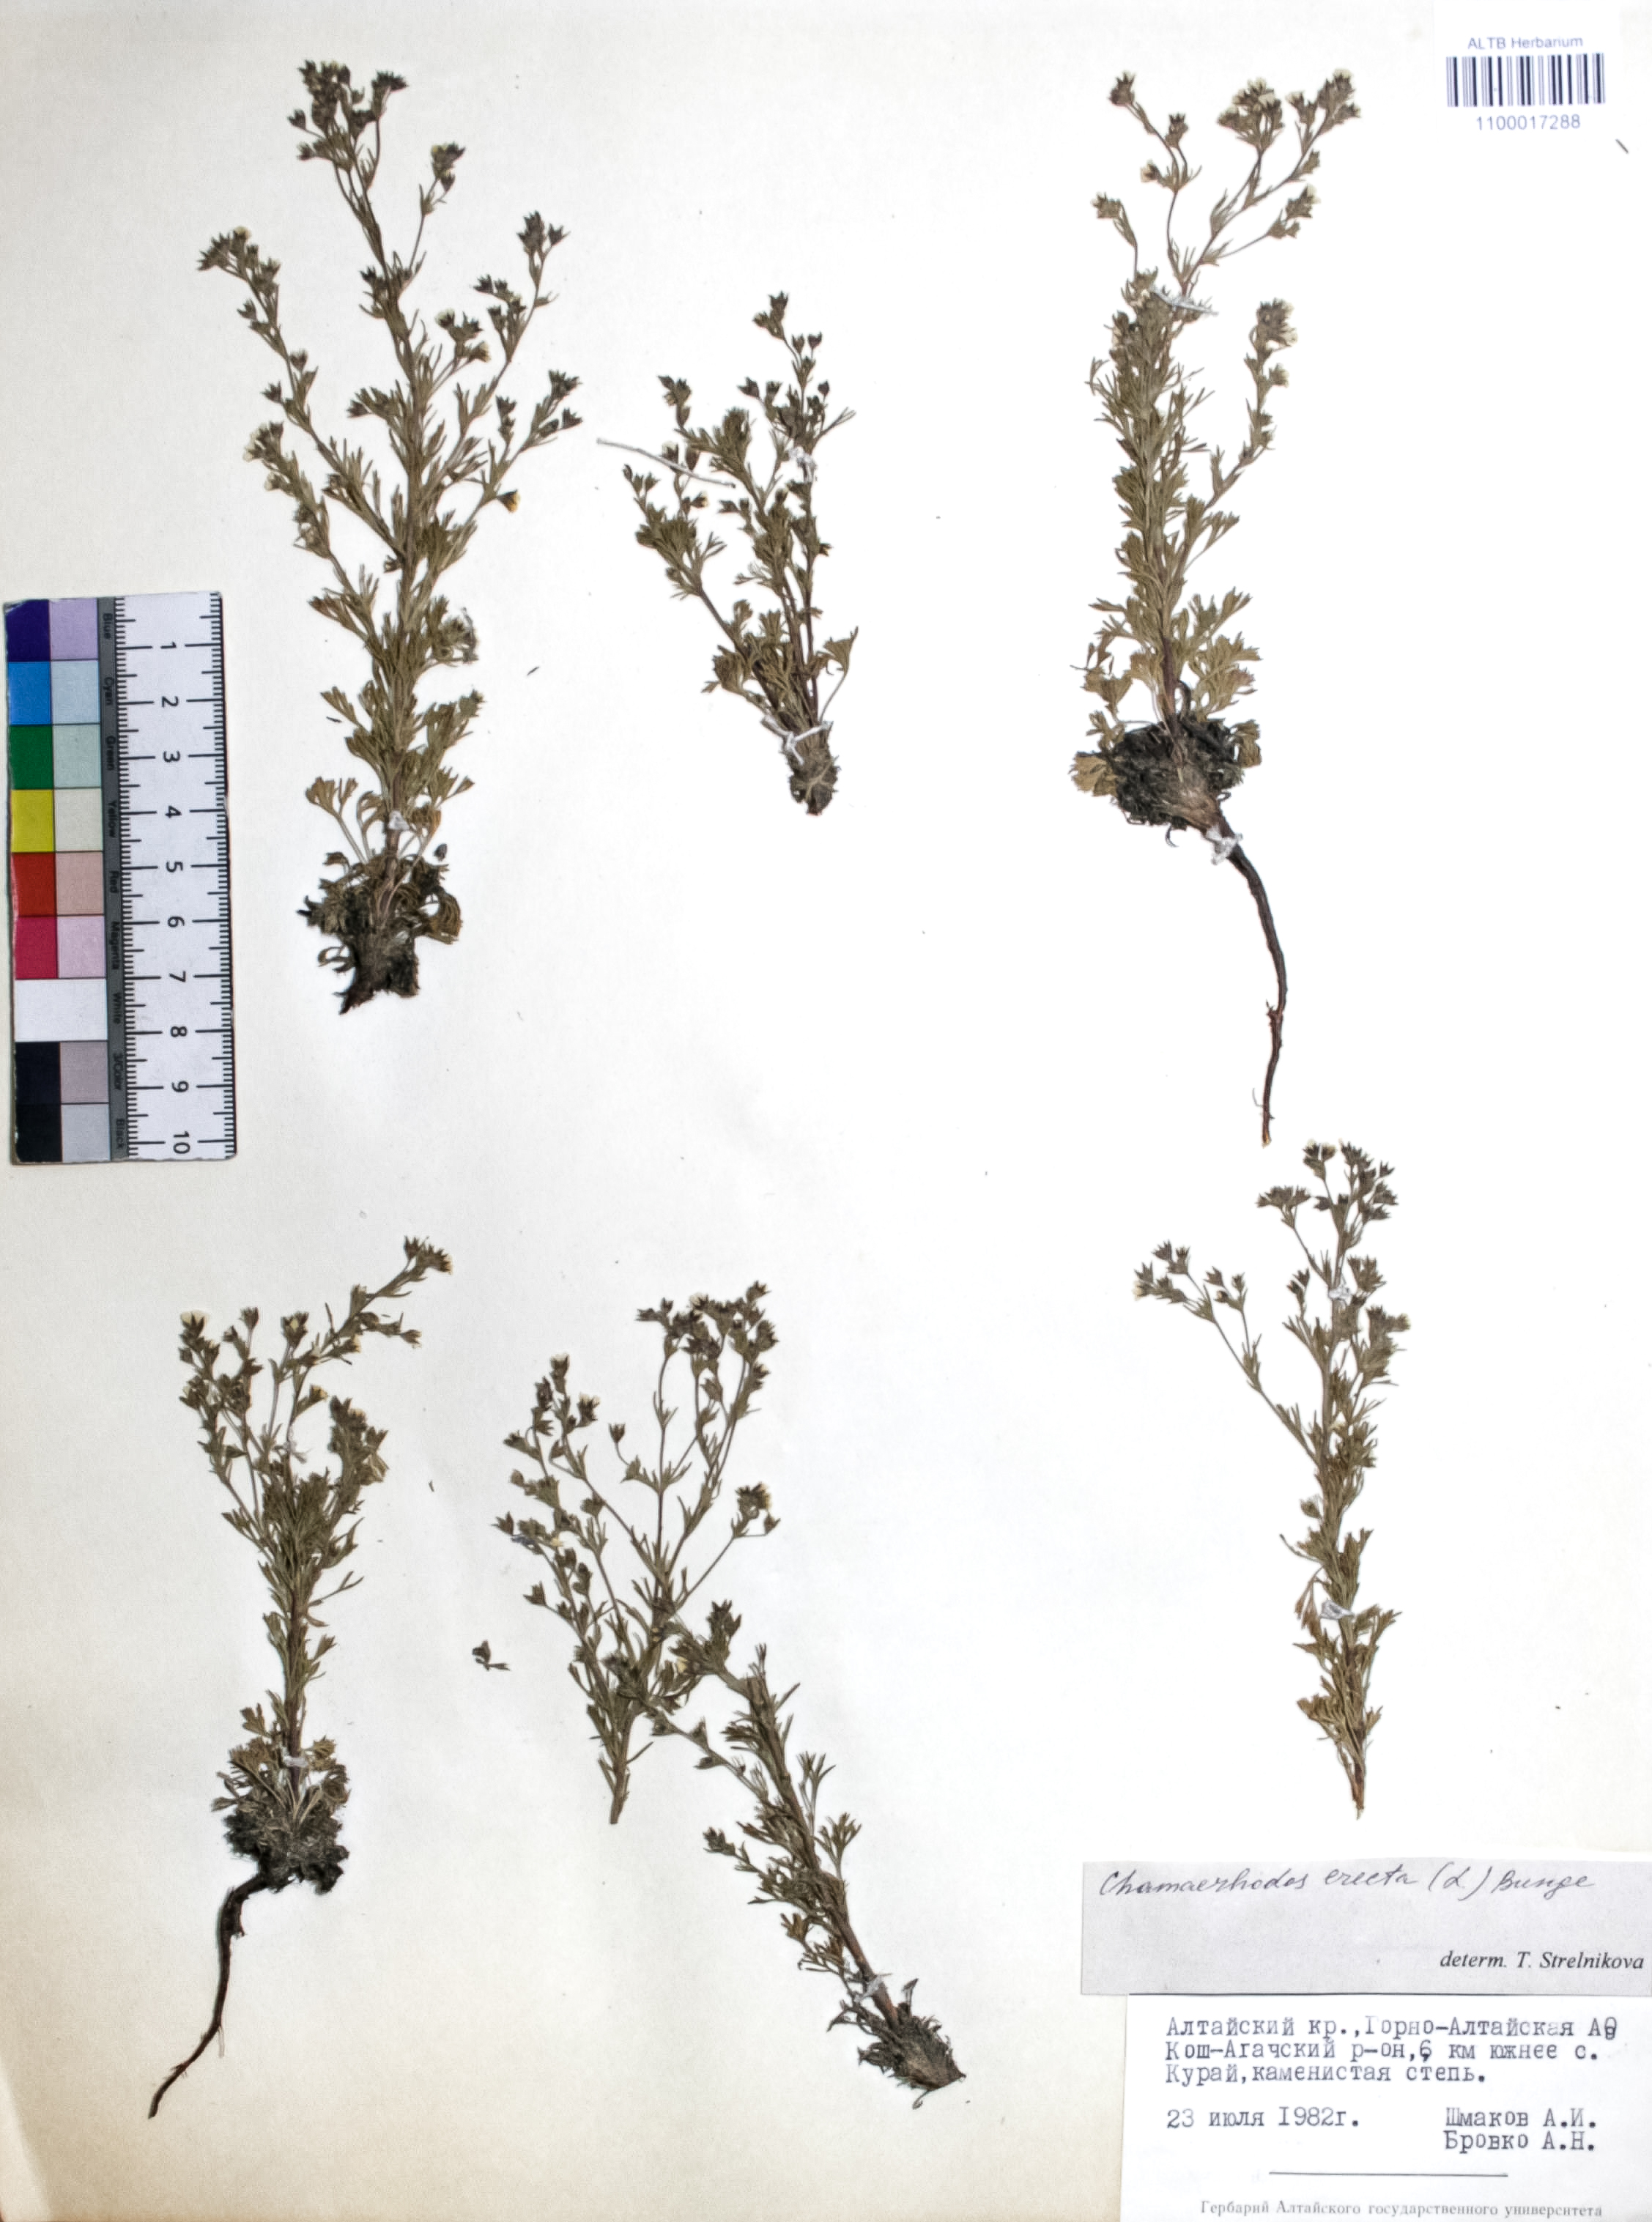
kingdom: Plantae
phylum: Tracheophyta
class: Magnoliopsida
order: Rosales
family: Rosaceae
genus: Chamaerhodos
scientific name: Chamaerhodos erecta
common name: American chamaerhodos
